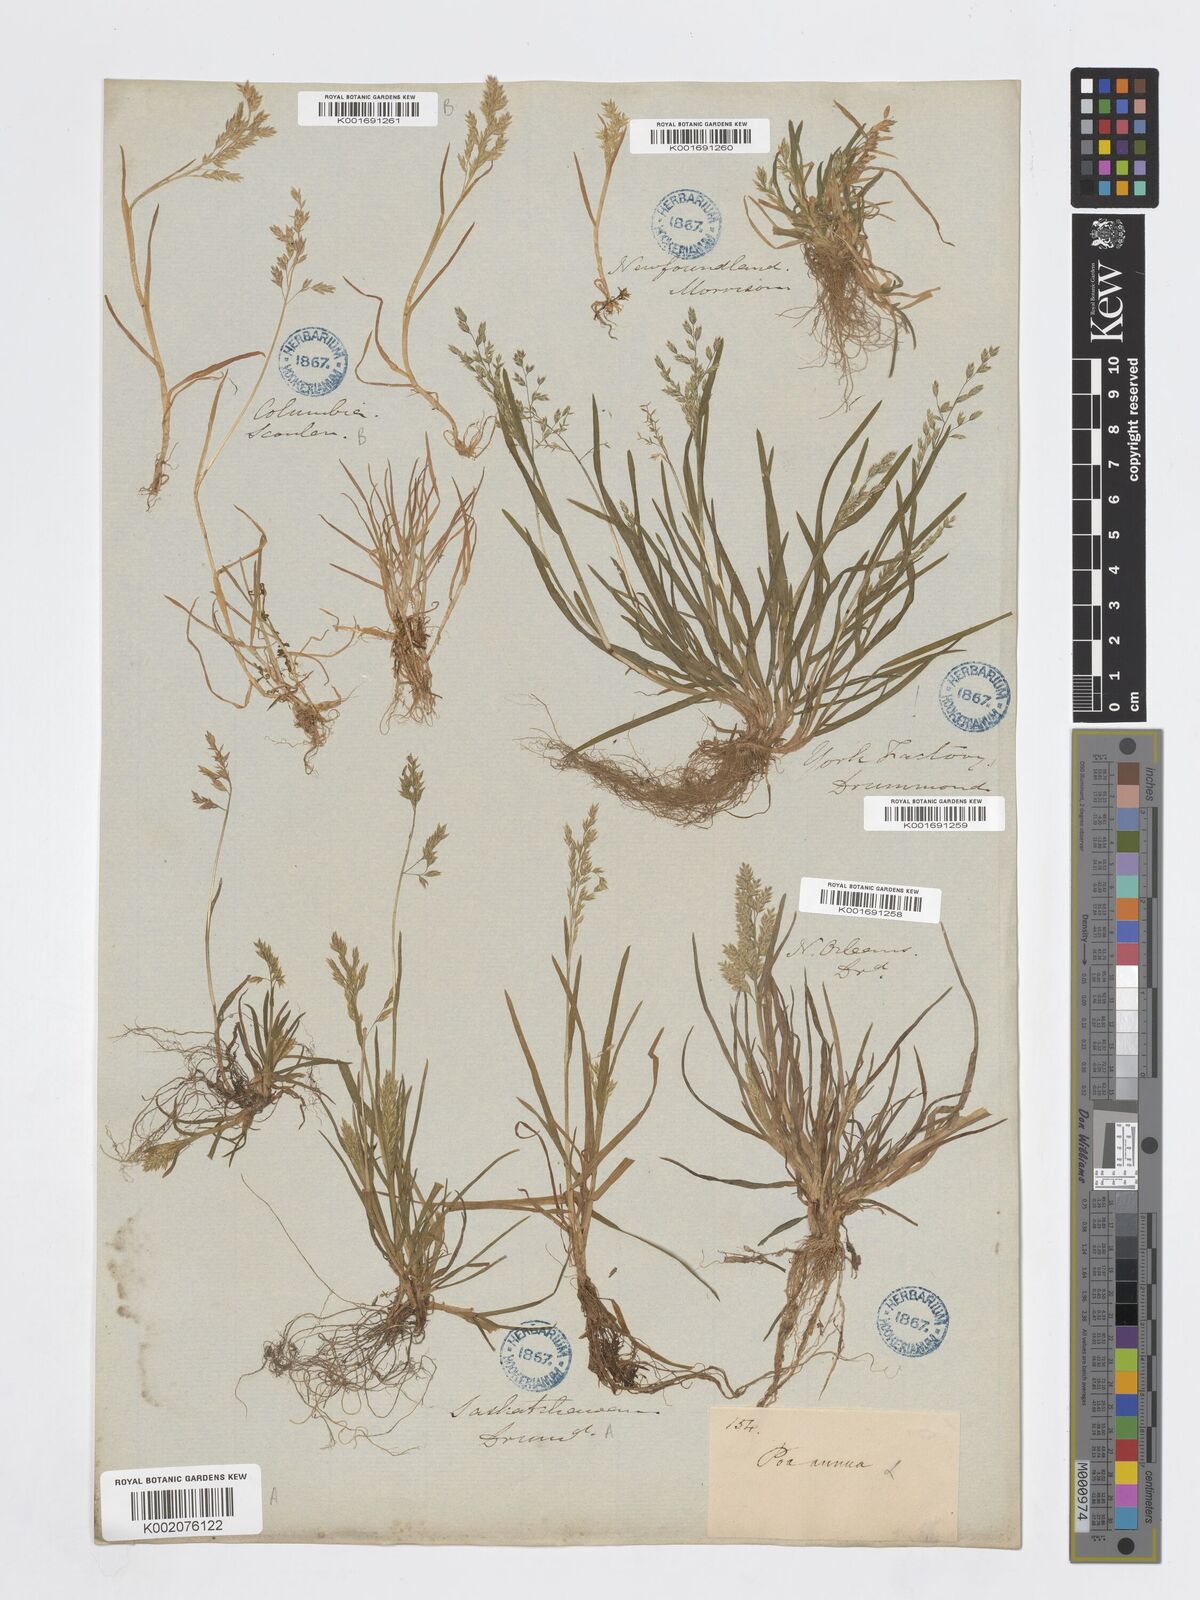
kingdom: Plantae
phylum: Tracheophyta
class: Liliopsida
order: Poales
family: Poaceae
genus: Poa
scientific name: Poa annua
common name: Annual bluegrass
